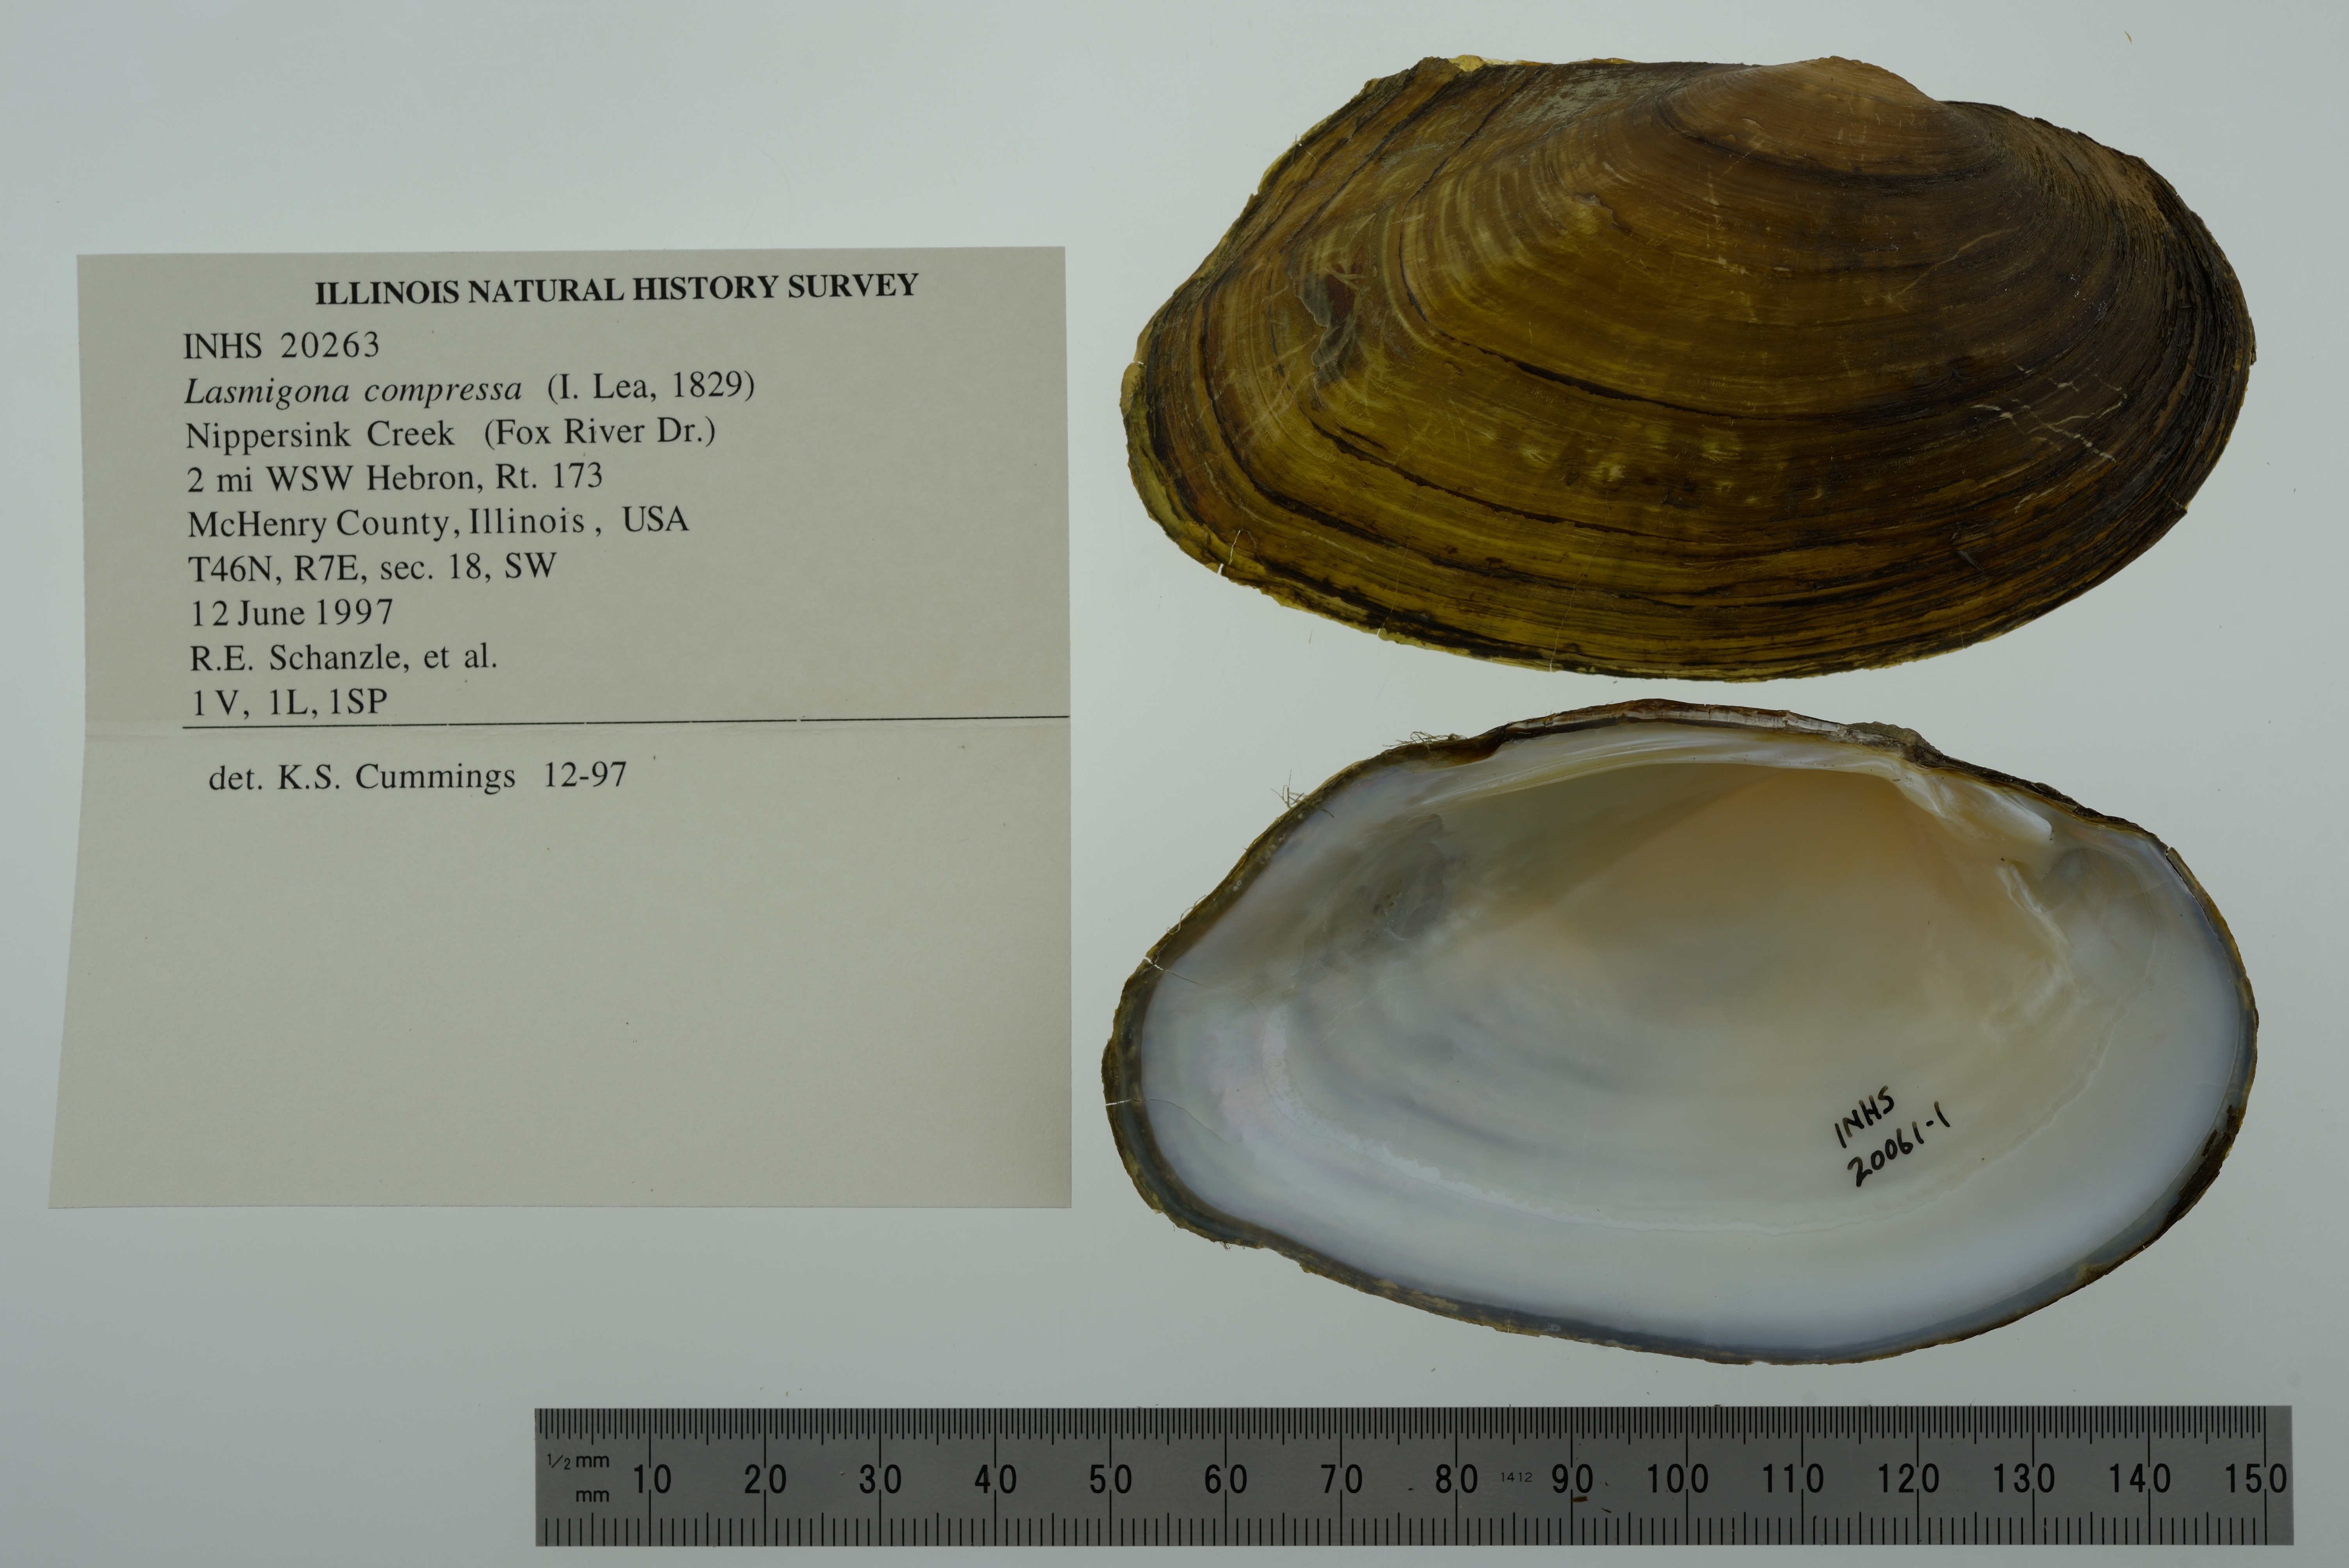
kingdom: Animalia
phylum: Mollusca
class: Bivalvia
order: Unionida
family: Unionidae
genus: Lasmigona
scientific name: Lasmigona compressa
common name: Creek heelsplitter
